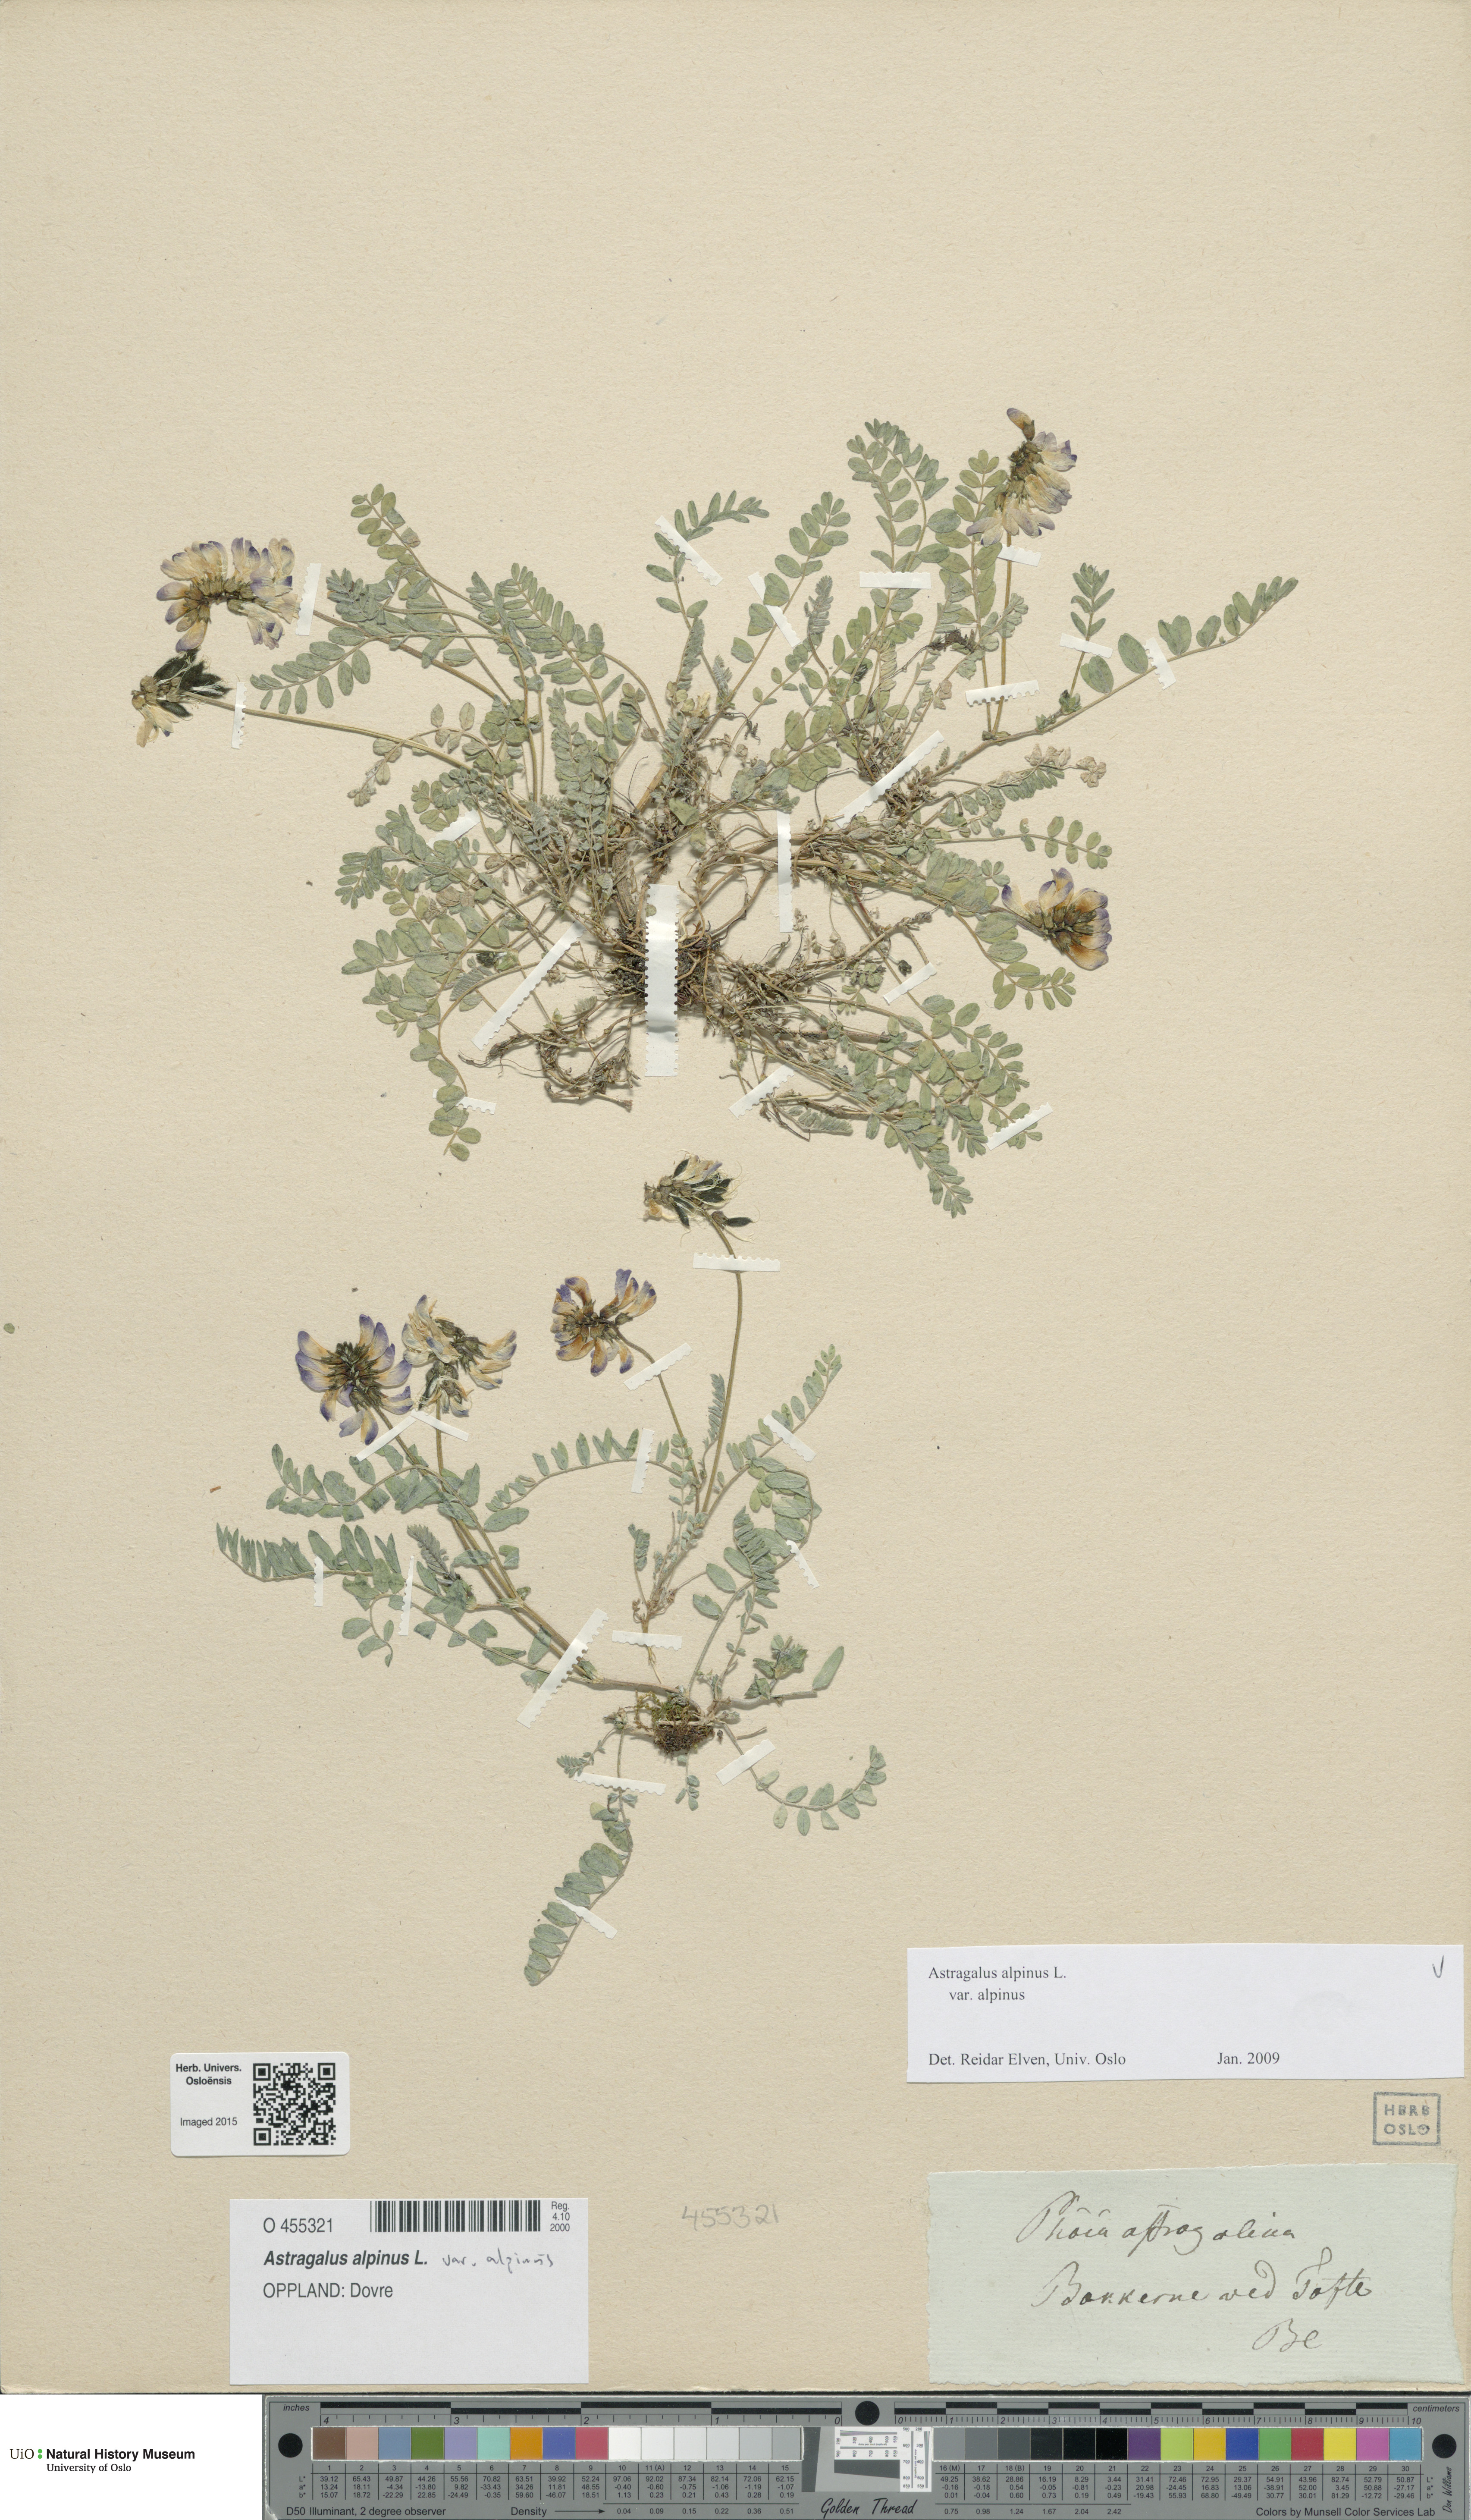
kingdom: Plantae
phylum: Tracheophyta
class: Magnoliopsida
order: Fabales
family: Fabaceae
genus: Astragalus
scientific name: Astragalus alpinus
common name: Alpine milk-vetch
